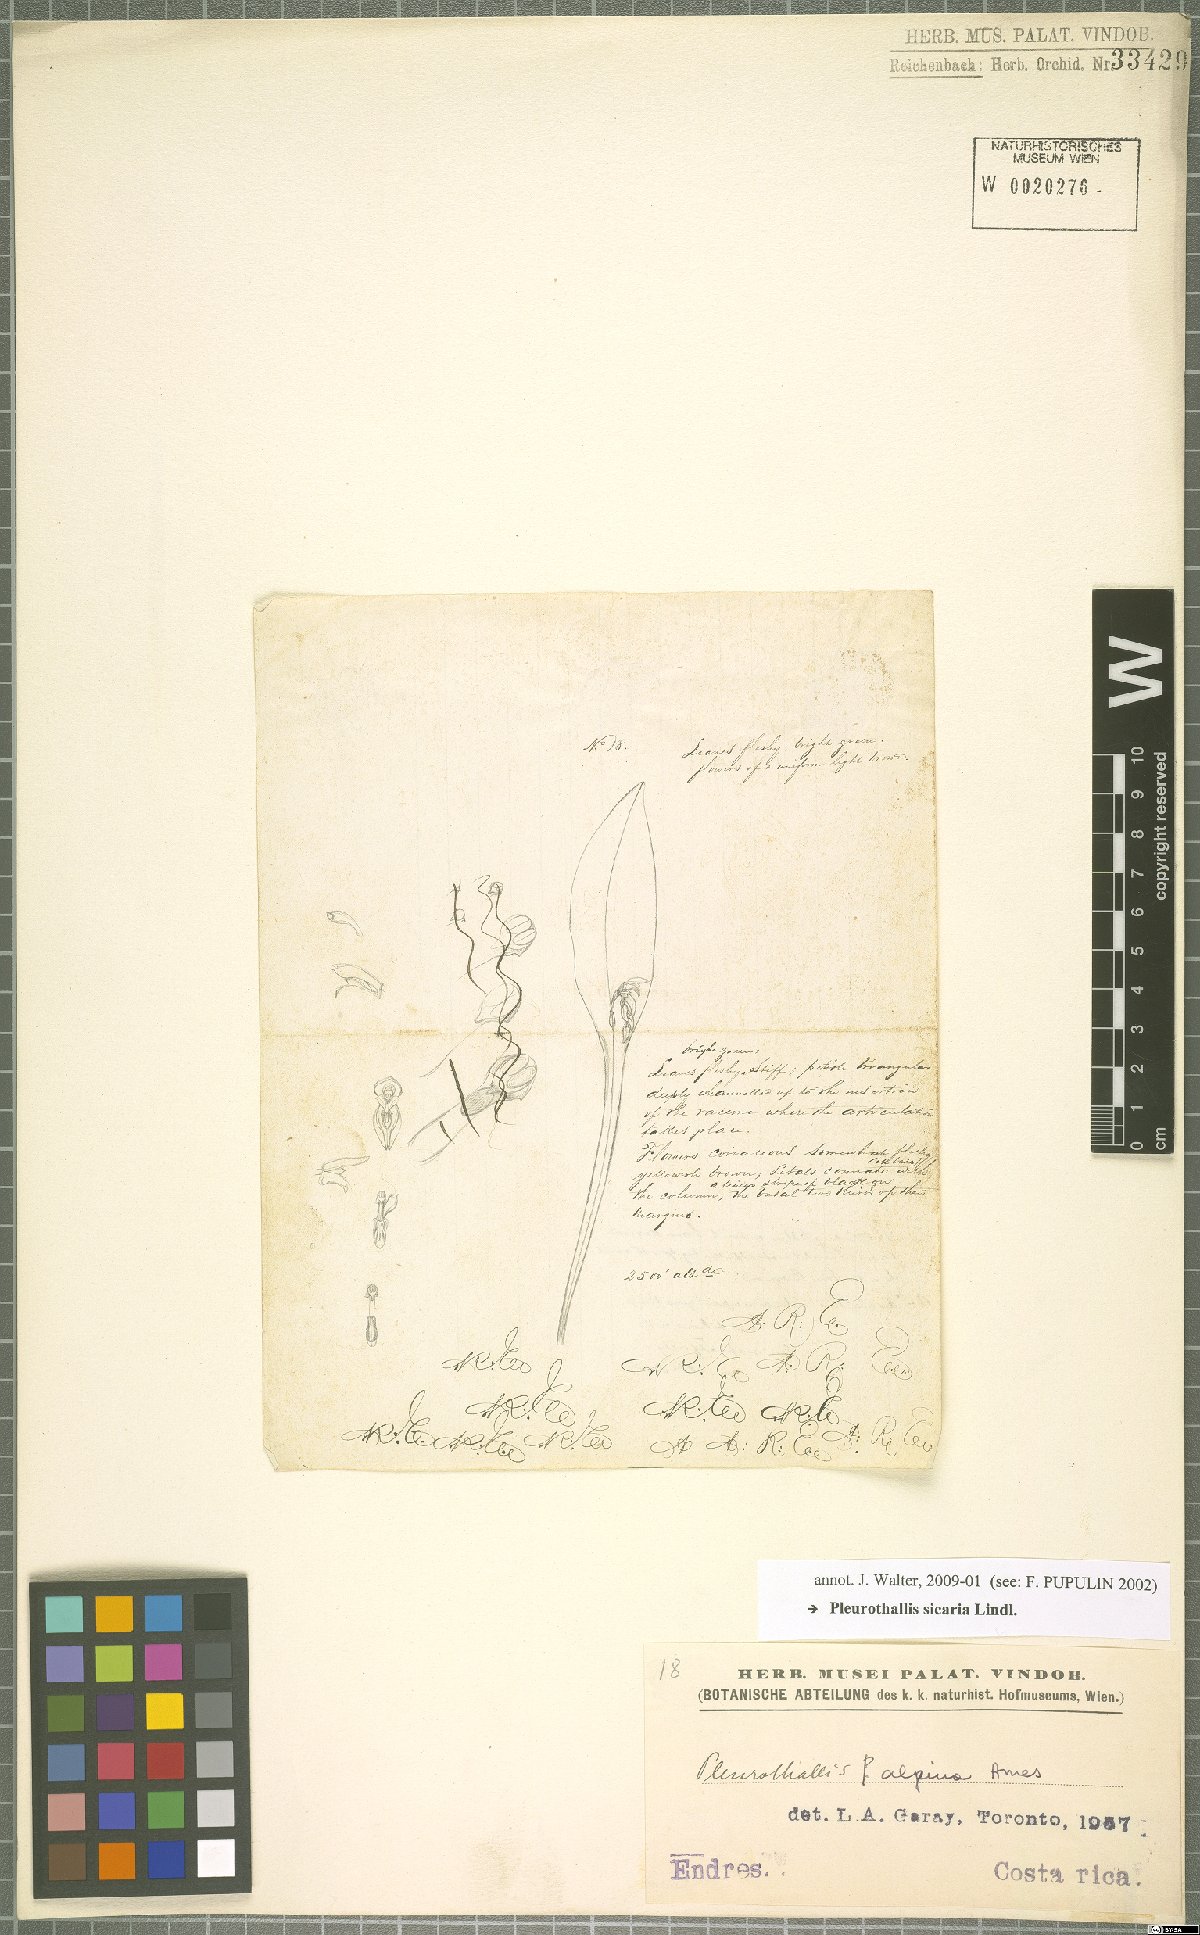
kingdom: Plantae
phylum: Tracheophyta
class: Liliopsida
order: Asparagales
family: Orchidaceae
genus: Acianthera
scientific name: Acianthera sicaria
